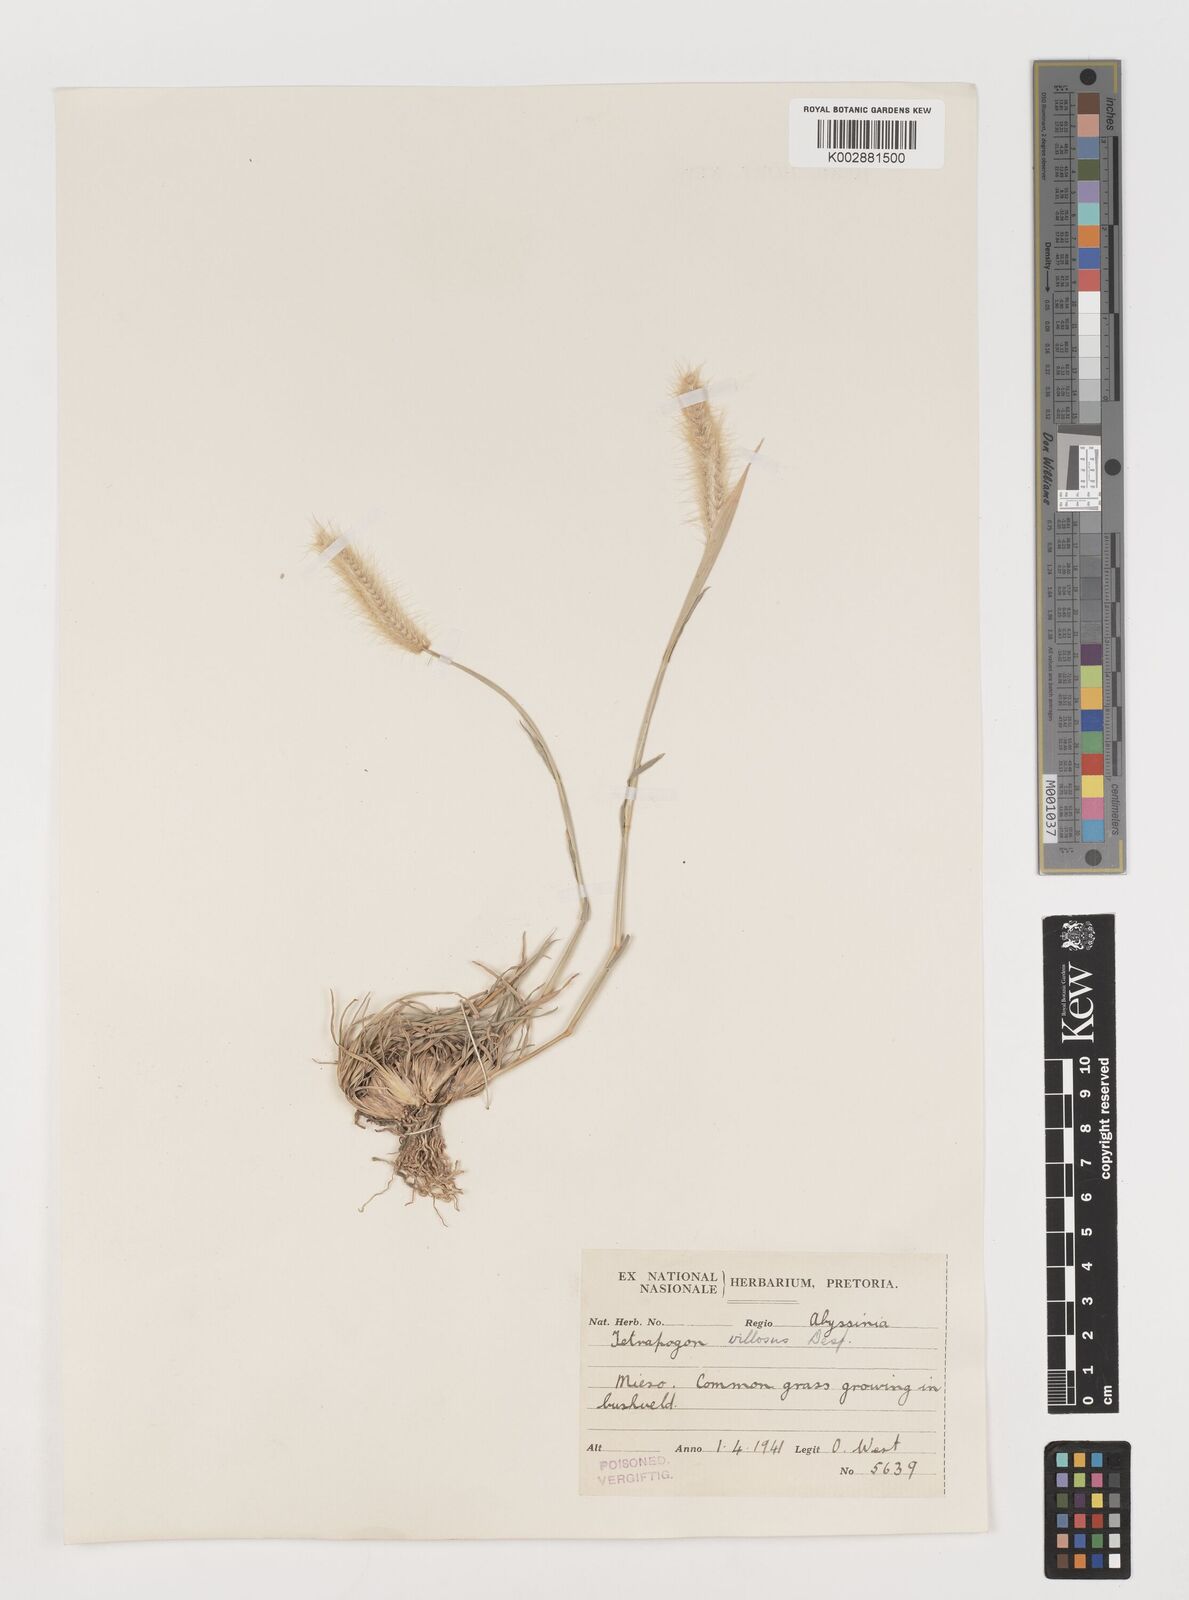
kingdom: Plantae
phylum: Tracheophyta
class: Liliopsida
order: Poales
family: Poaceae
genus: Tetrapogon
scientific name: Tetrapogon villosus
